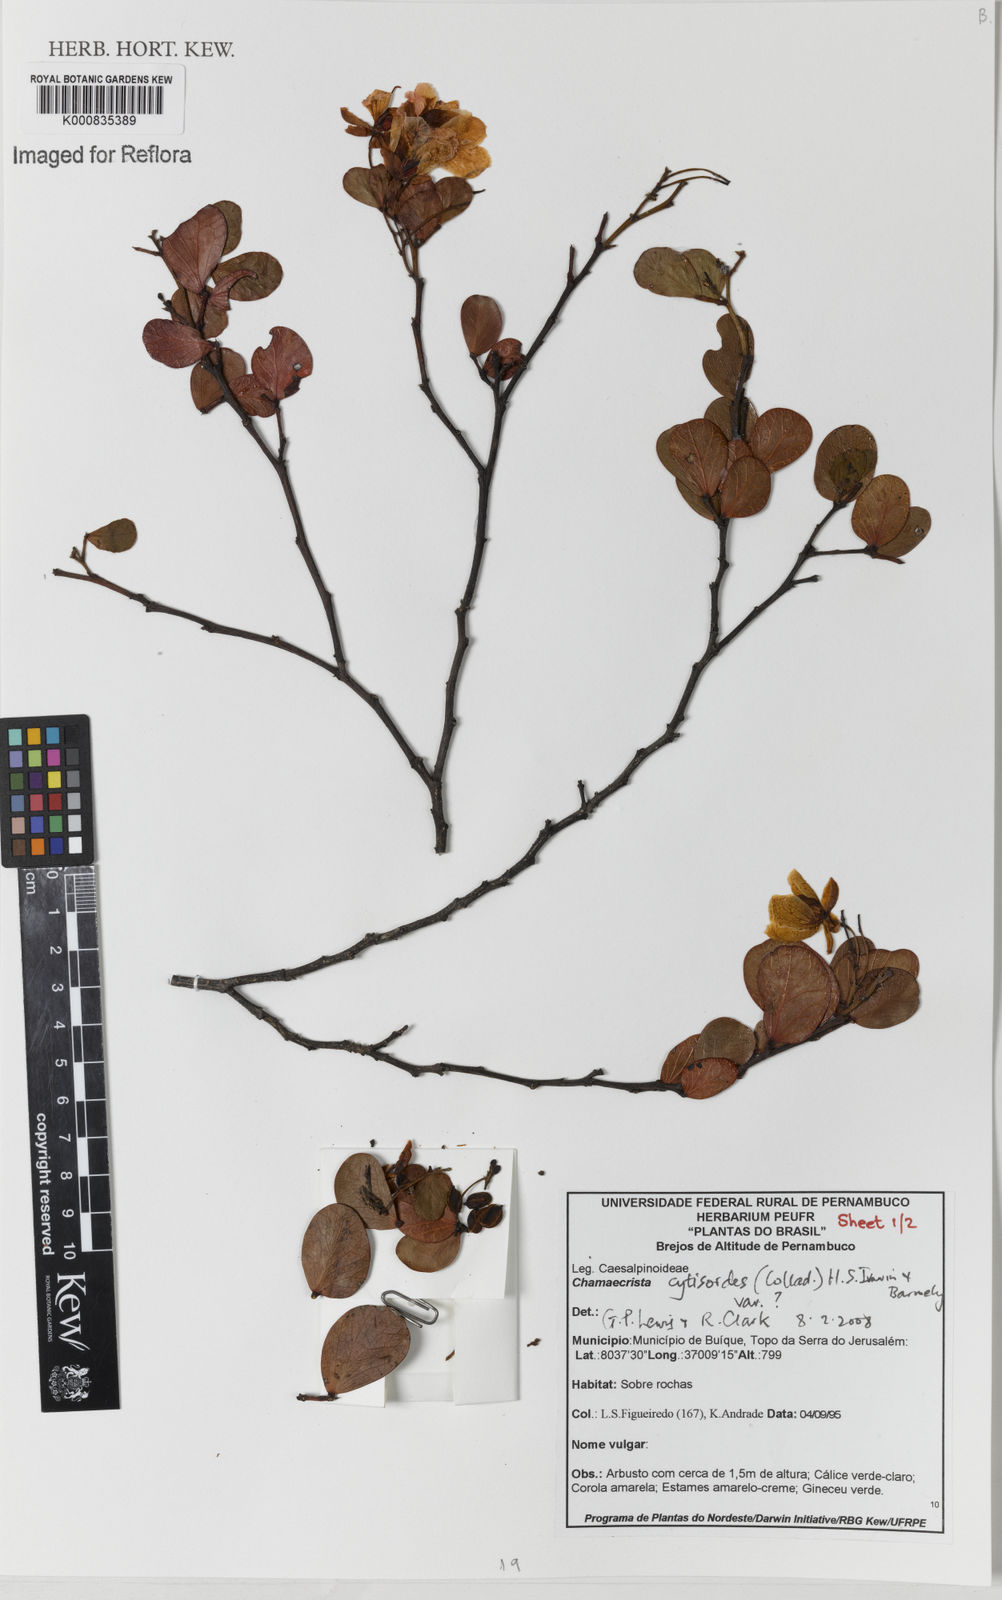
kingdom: Plantae
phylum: Tracheophyta
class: Magnoliopsida
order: Fabales
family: Fabaceae
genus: Chamaecrista
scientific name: Chamaecrista brachystachya
